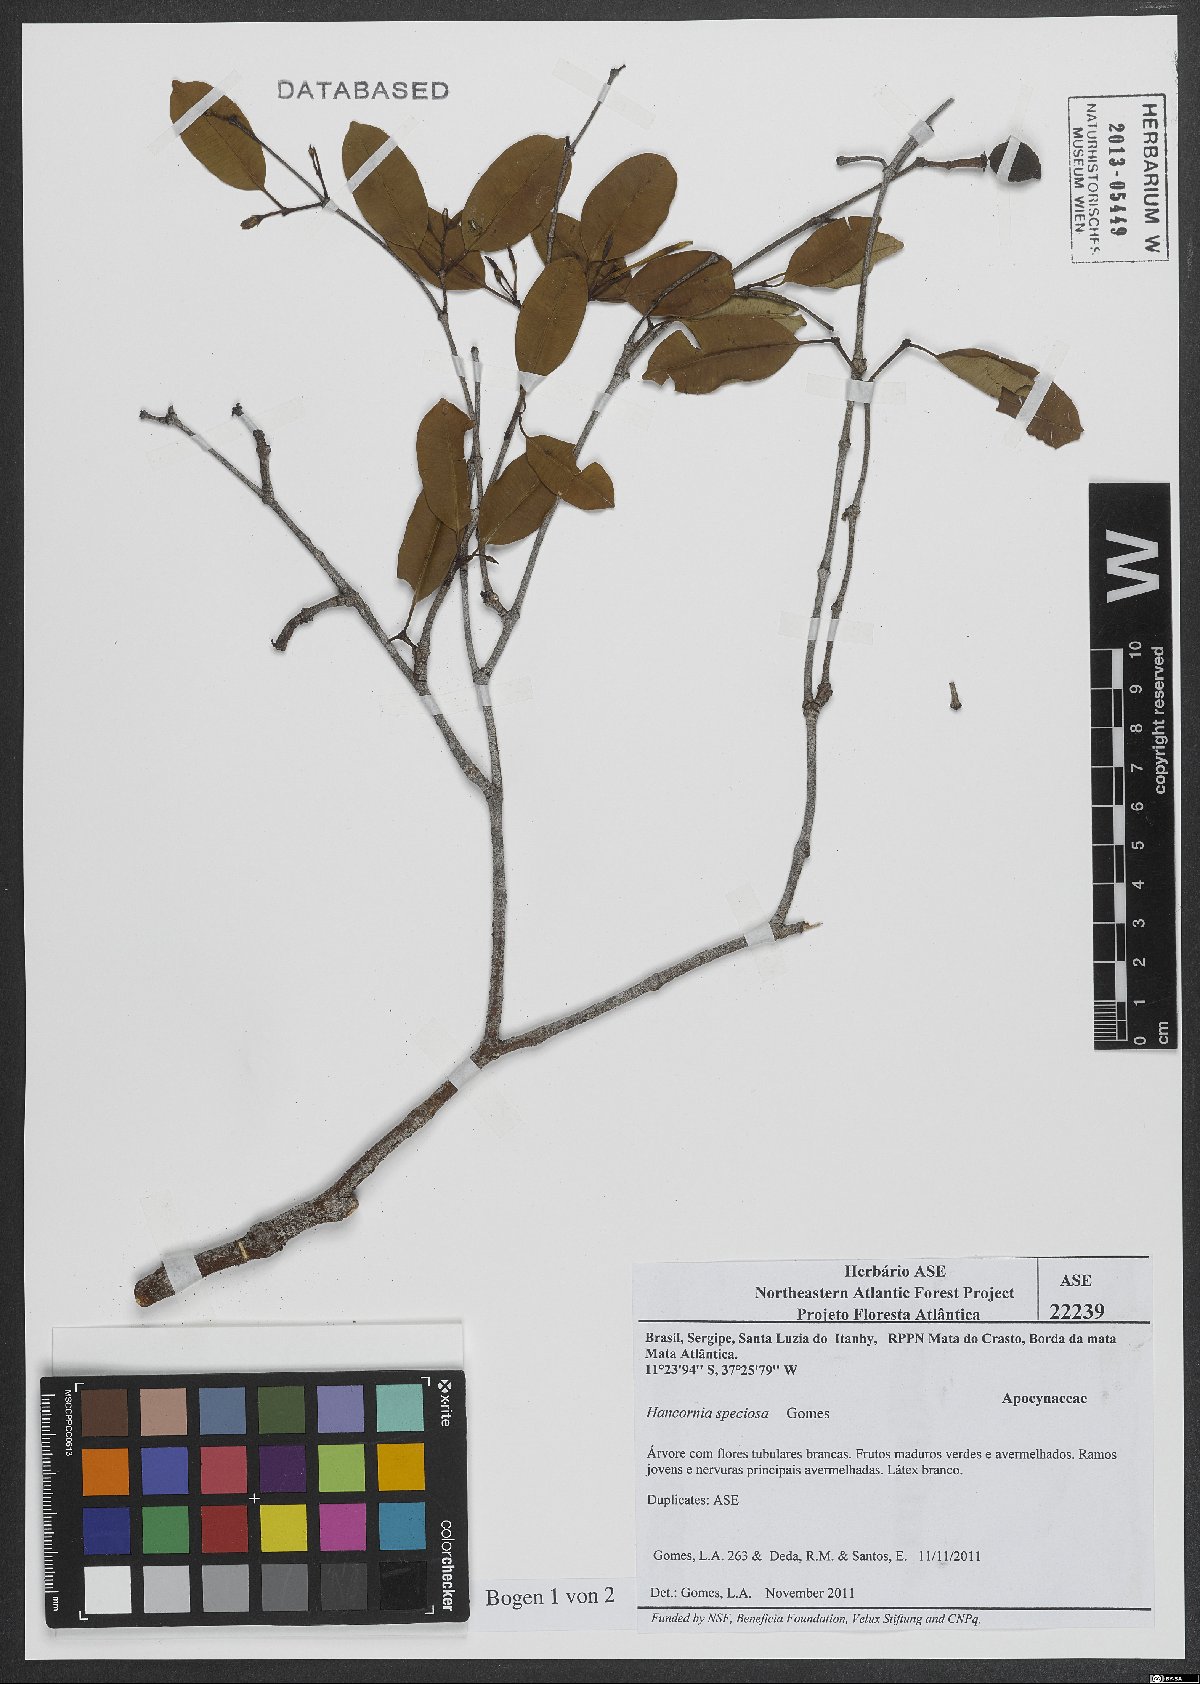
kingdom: Plantae
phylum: Tracheophyta
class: Magnoliopsida
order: Gentianales
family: Apocynaceae
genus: Hancornia
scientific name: Hancornia speciosa
